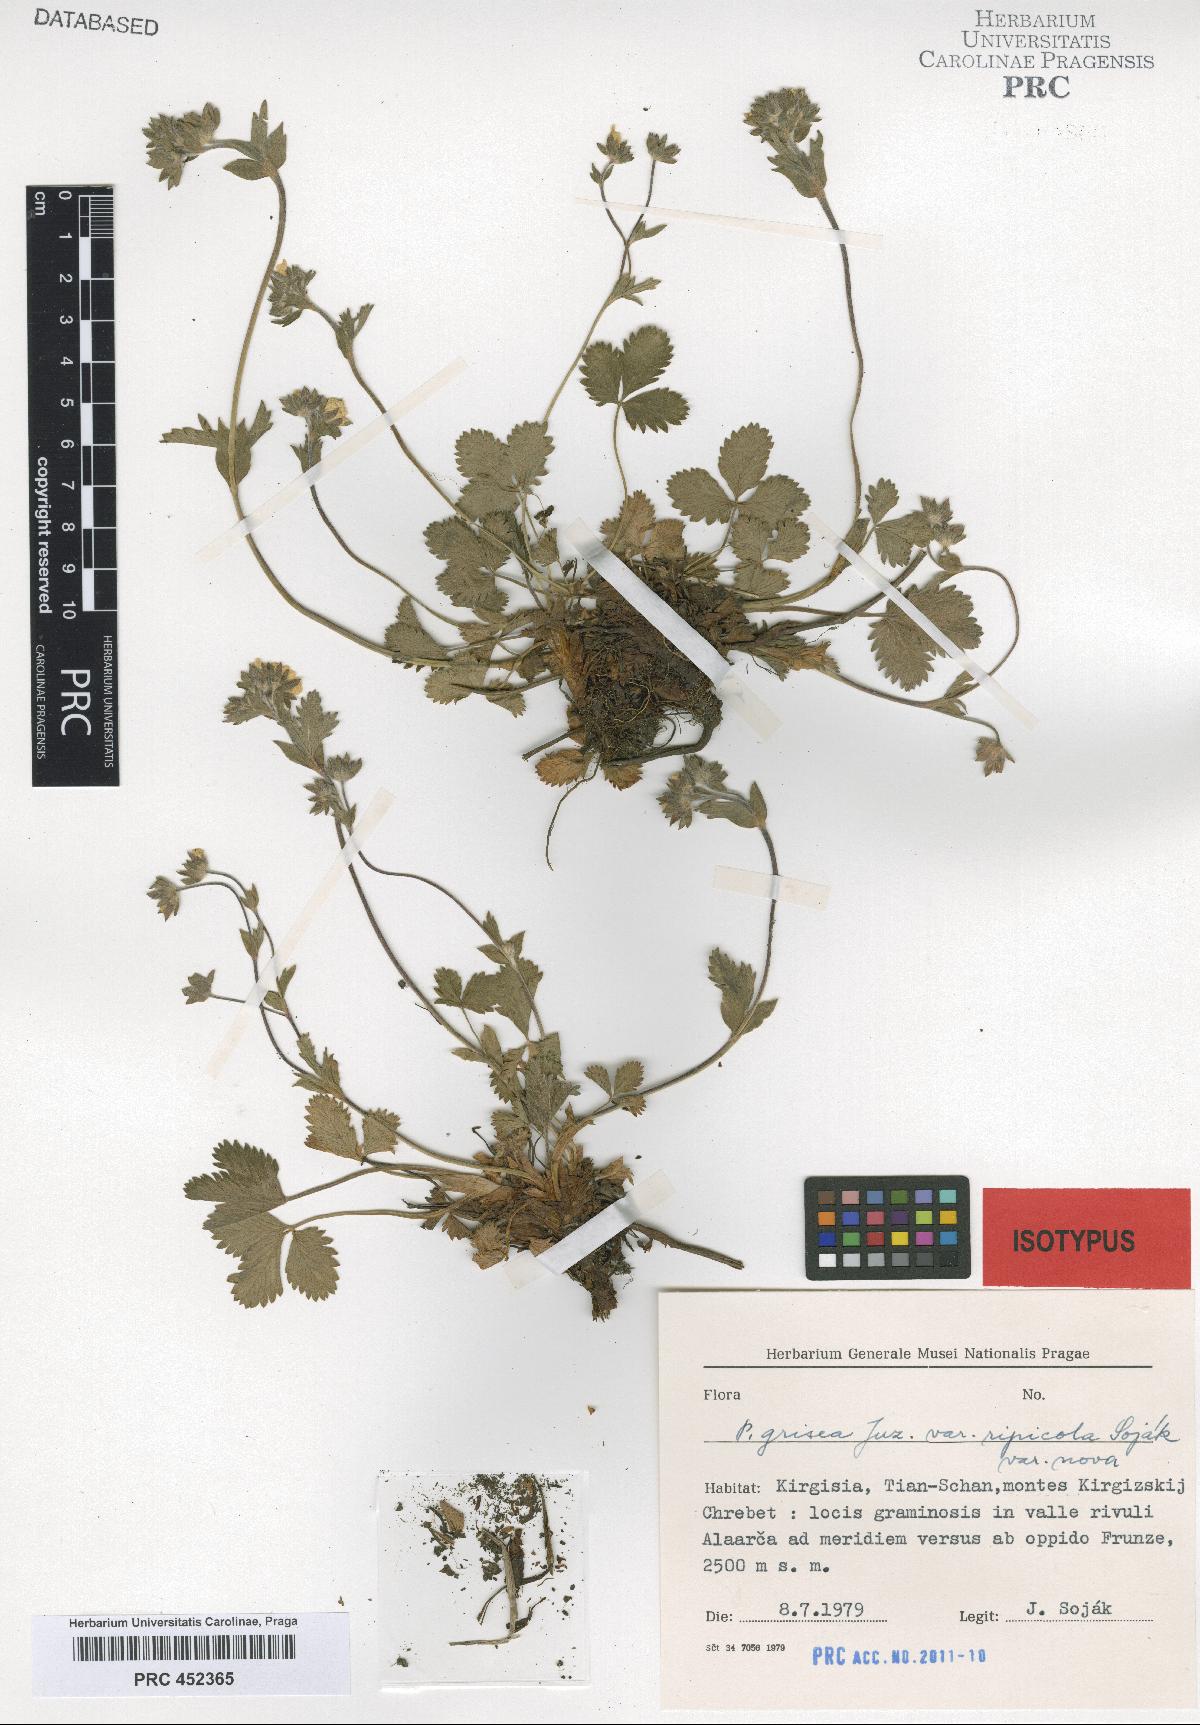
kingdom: Plantae
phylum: Tracheophyta
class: Magnoliopsida
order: Rosales
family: Rosaceae
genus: Potentilla
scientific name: Potentilla grisea
